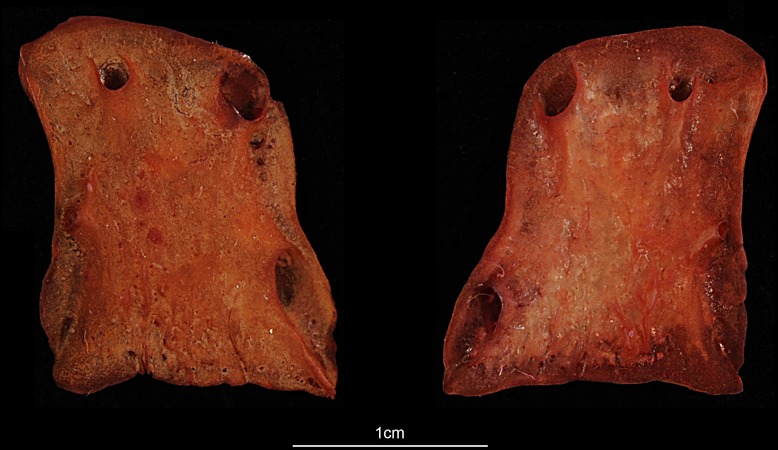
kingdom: Animalia
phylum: Chordata
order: Perciformes
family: Cichlidae
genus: Hypselecara
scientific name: Hypselecara temporalis
